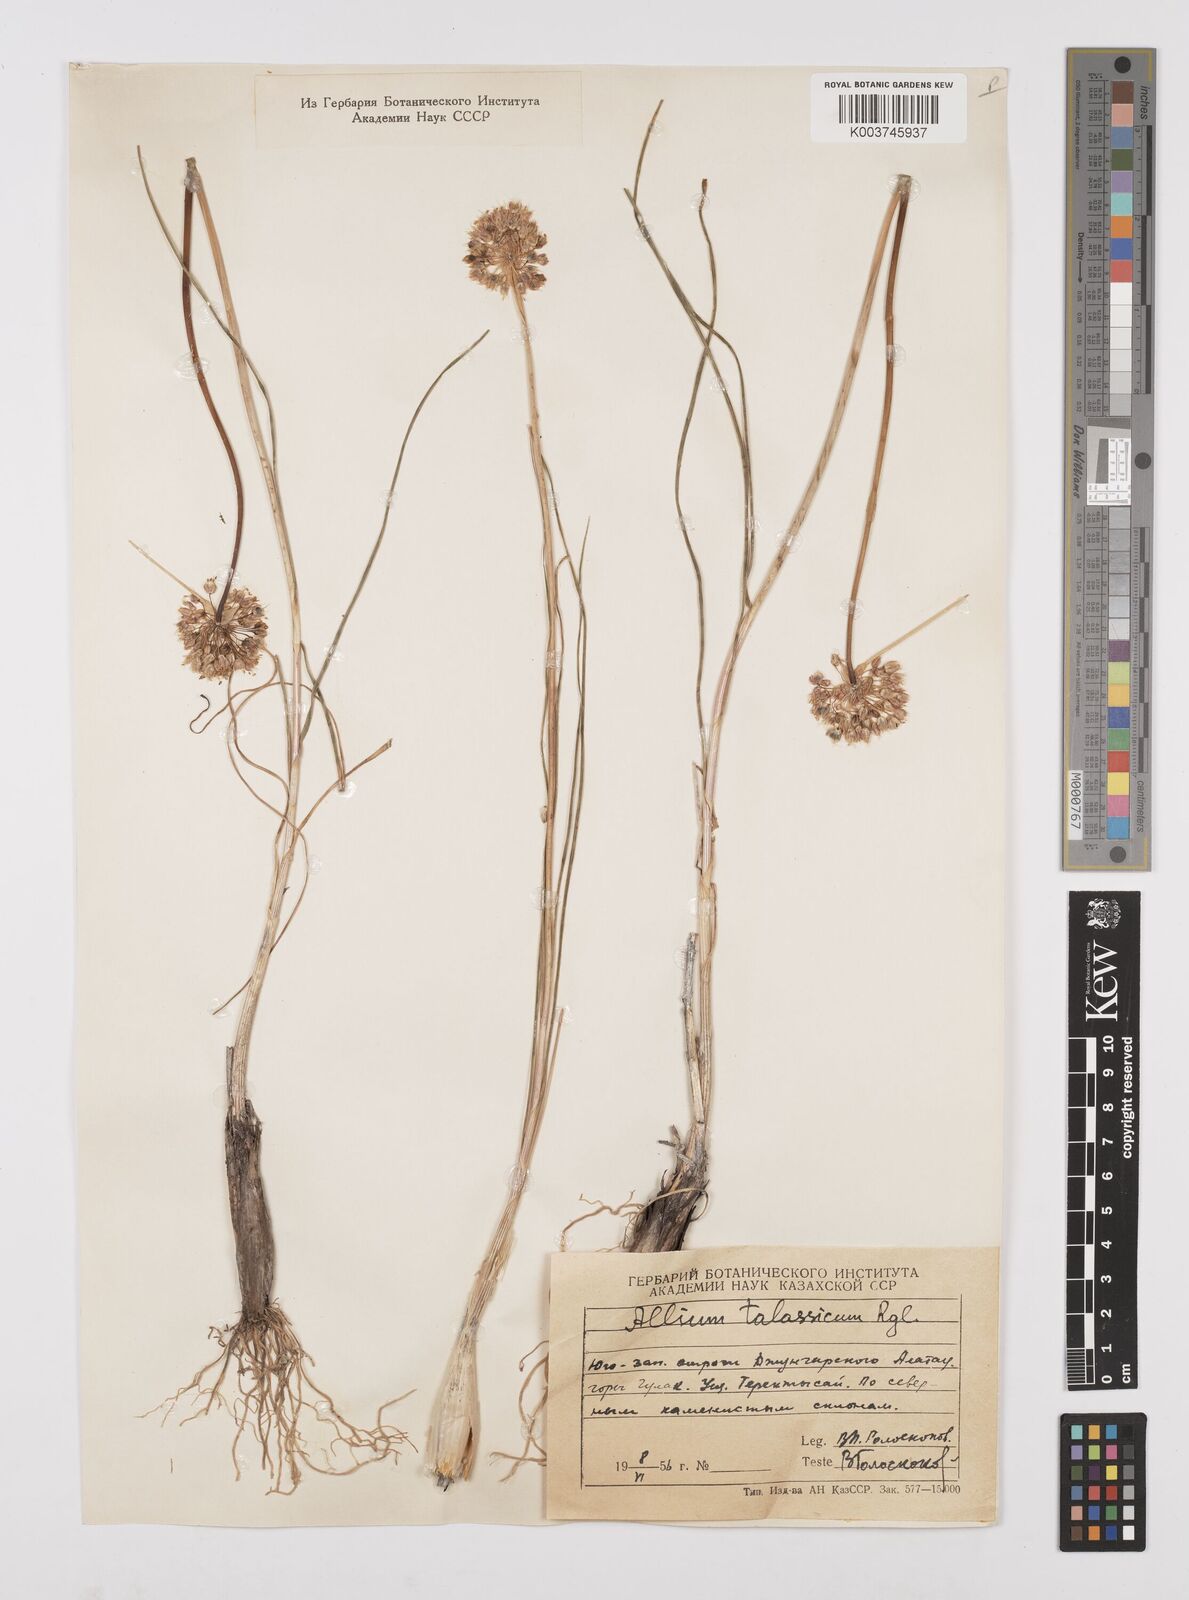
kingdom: Plantae
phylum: Tracheophyta
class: Liliopsida
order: Asparagales
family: Amaryllidaceae
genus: Allium
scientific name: Allium talassicum
